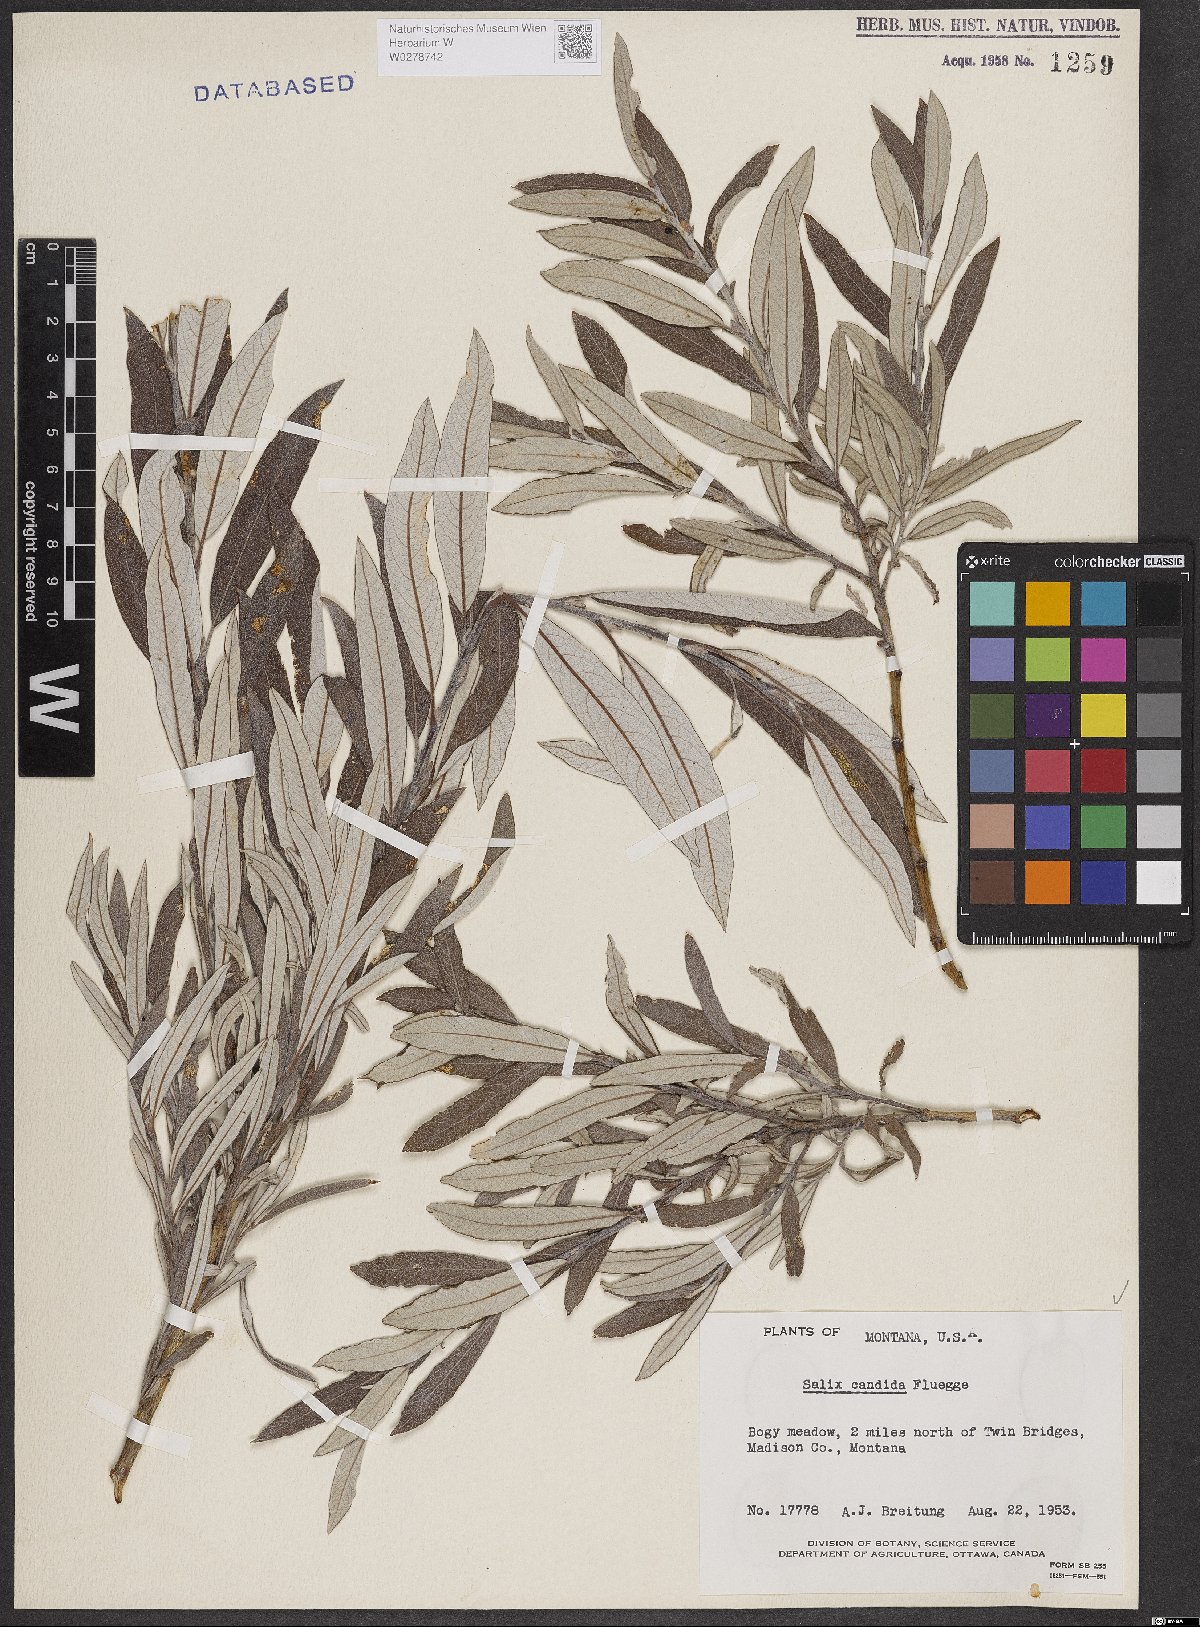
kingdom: Plantae
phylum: Tracheophyta
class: Magnoliopsida
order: Malpighiales
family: Salicaceae
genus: Salix
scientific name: Salix candida
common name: Hoary willow
